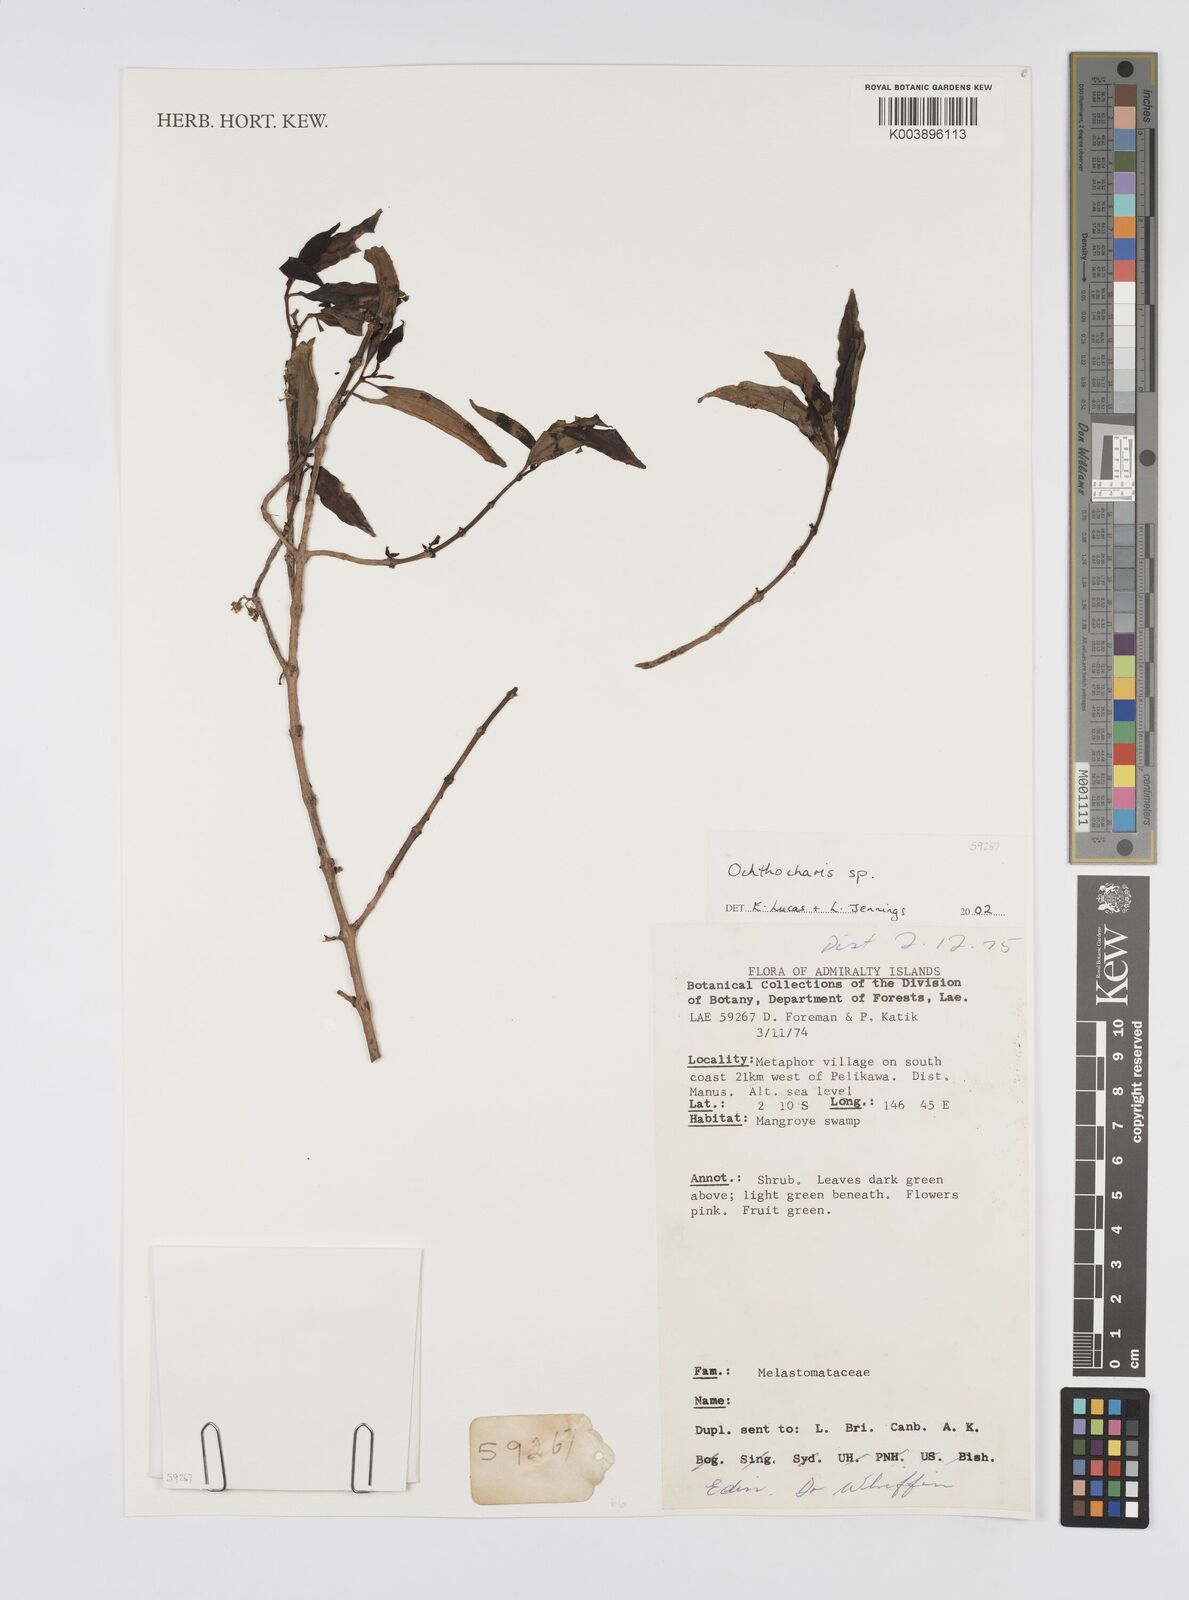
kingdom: Plantae
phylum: Tracheophyta
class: Magnoliopsida
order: Myrtales
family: Melastomataceae
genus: Ochthocharis
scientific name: Ochthocharis
